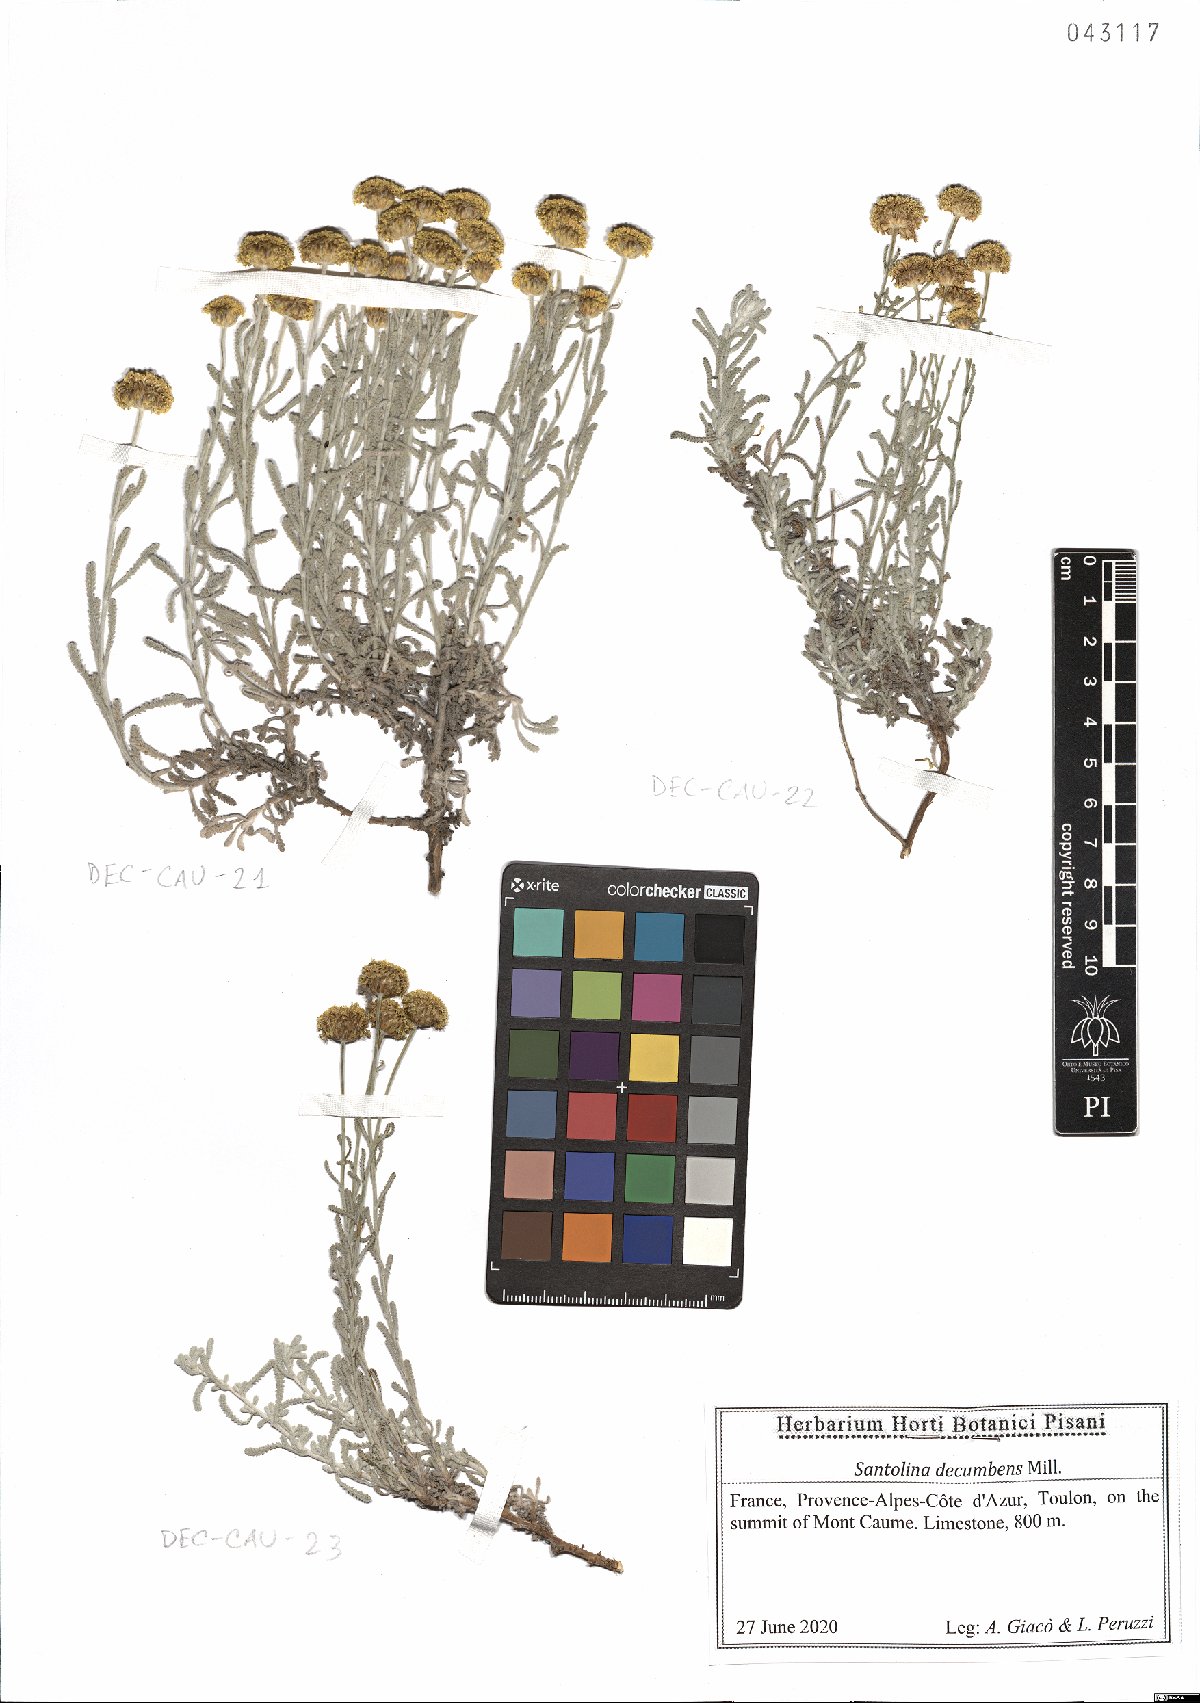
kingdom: Plantae
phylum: Tracheophyta
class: Magnoliopsida
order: Asterales
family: Asteraceae
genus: Santolina
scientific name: Santolina decumbens
